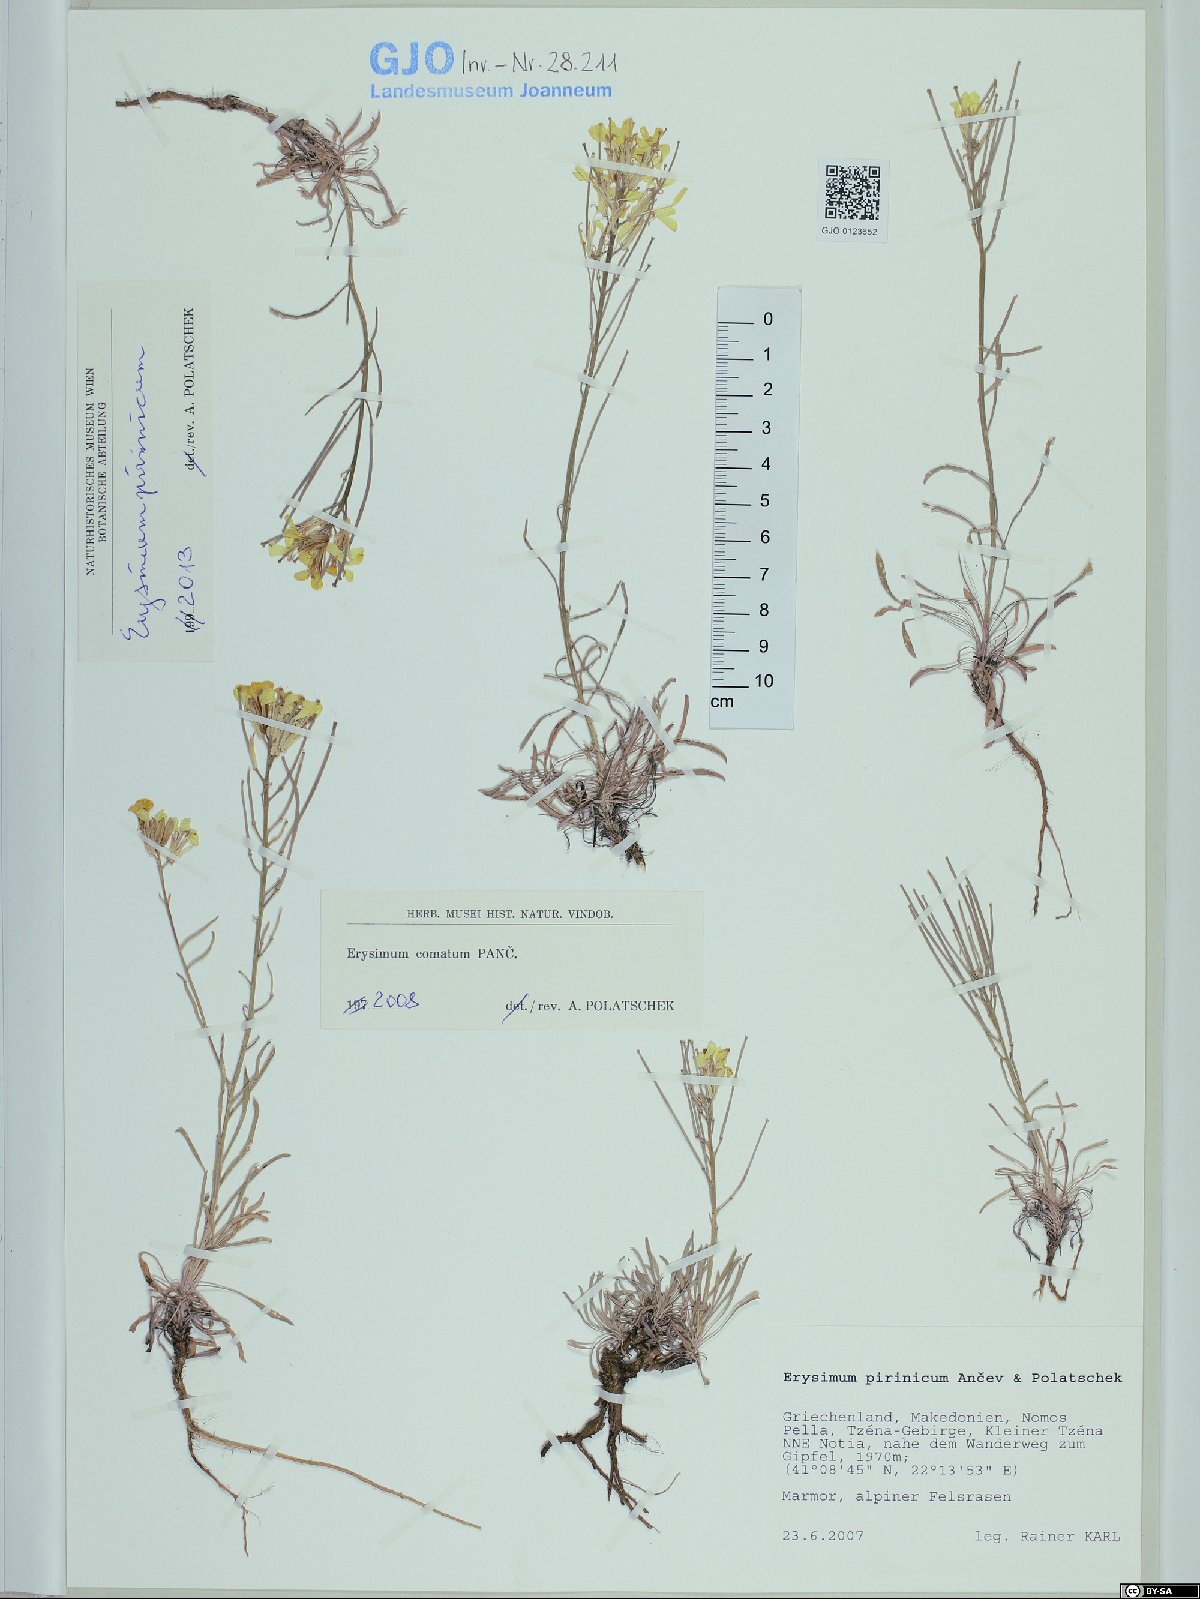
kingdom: Plantae
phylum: Tracheophyta
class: Magnoliopsida
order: Brassicales
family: Brassicaceae
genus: Erysimum
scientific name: Erysimum pirinicum
